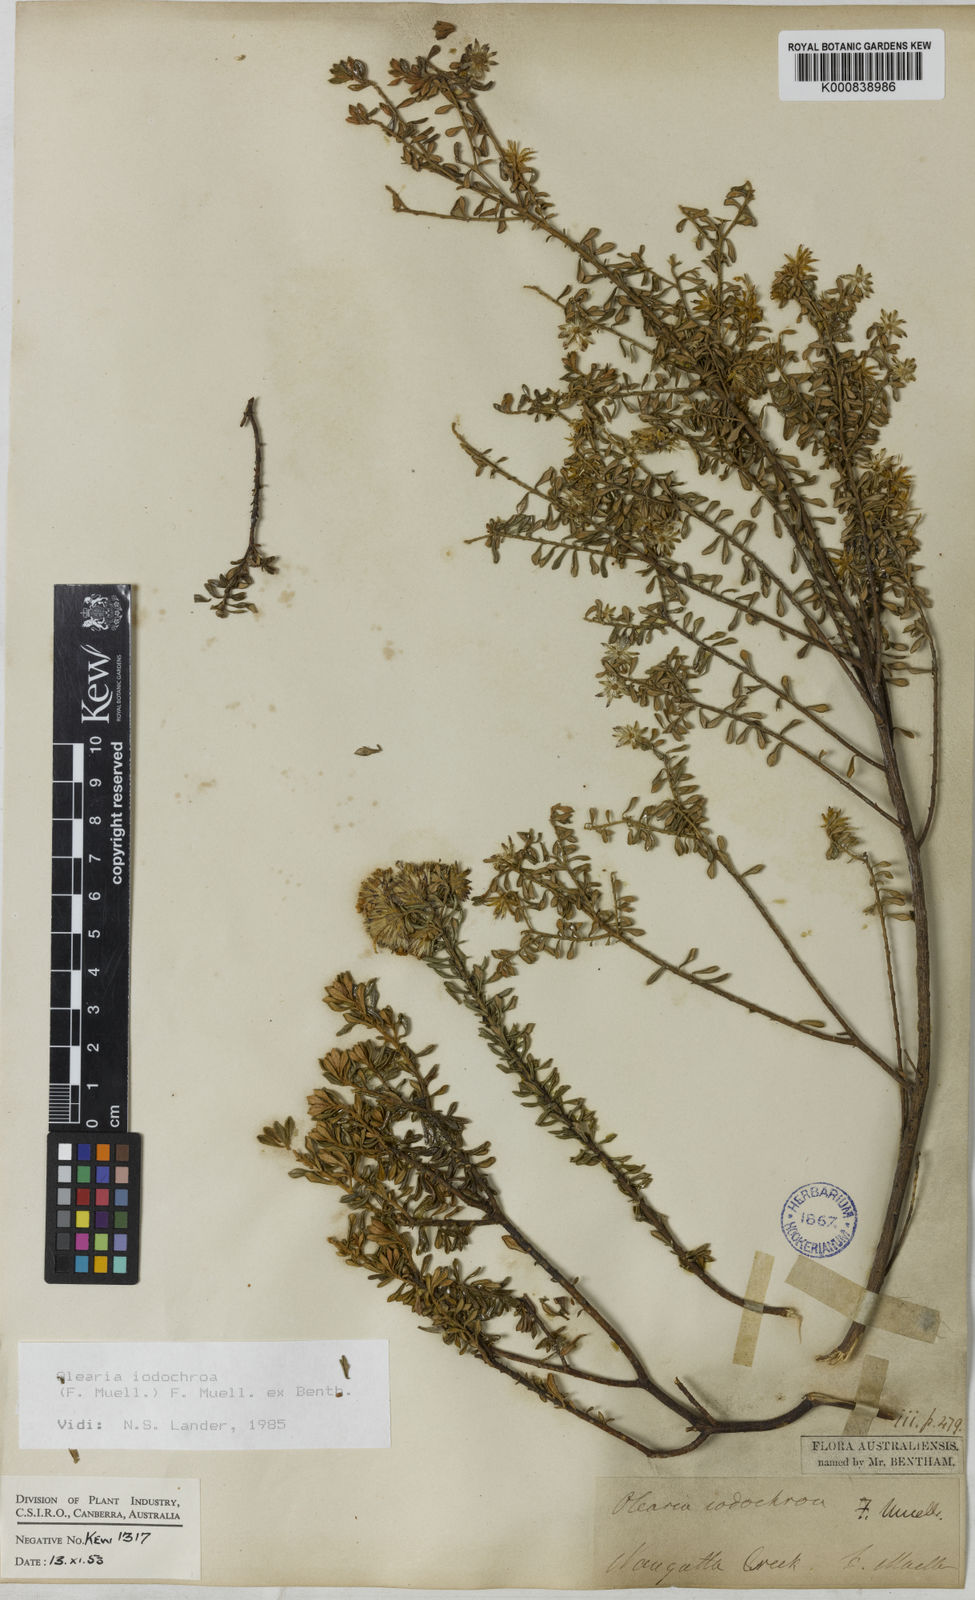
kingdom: Plantae
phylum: Tracheophyta
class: Magnoliopsida
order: Asterales
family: Asteraceae
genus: Olearia
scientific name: Olearia iodochroa
